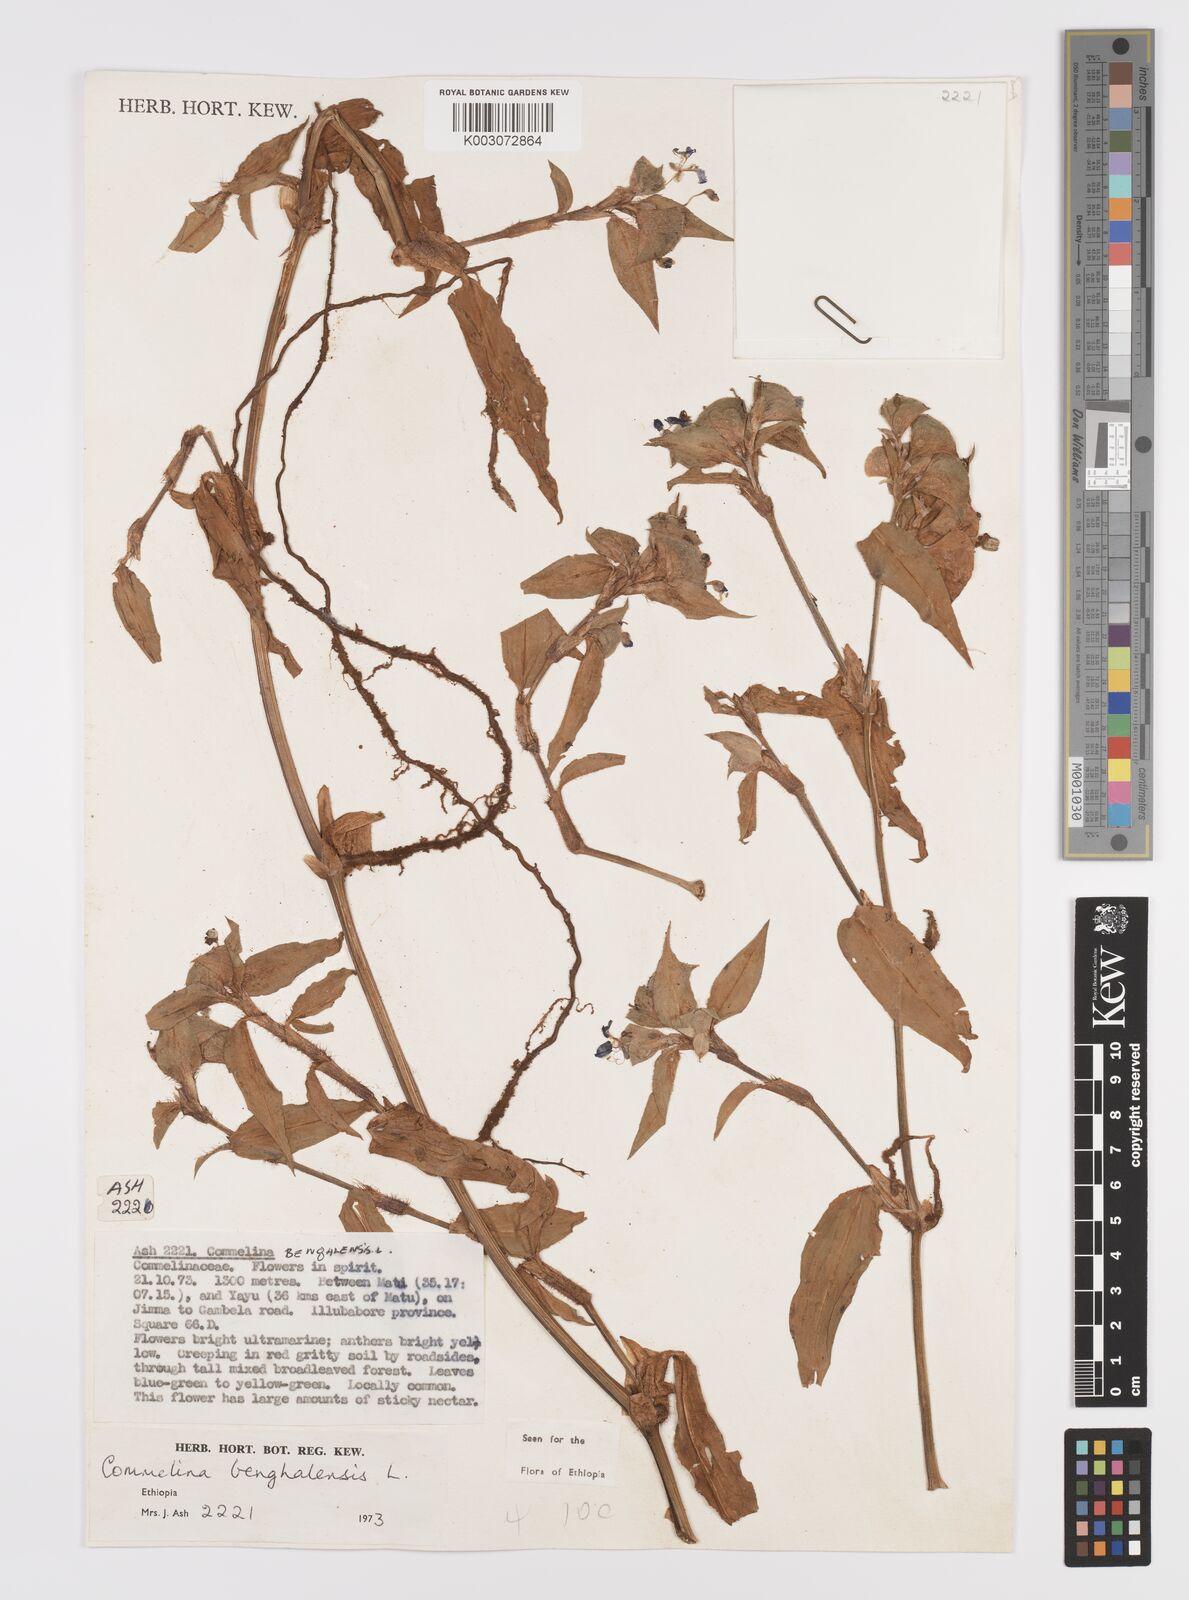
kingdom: Plantae
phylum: Tracheophyta
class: Liliopsida
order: Commelinales
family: Commelinaceae
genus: Commelina
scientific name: Commelina benghalensis
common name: Jio
